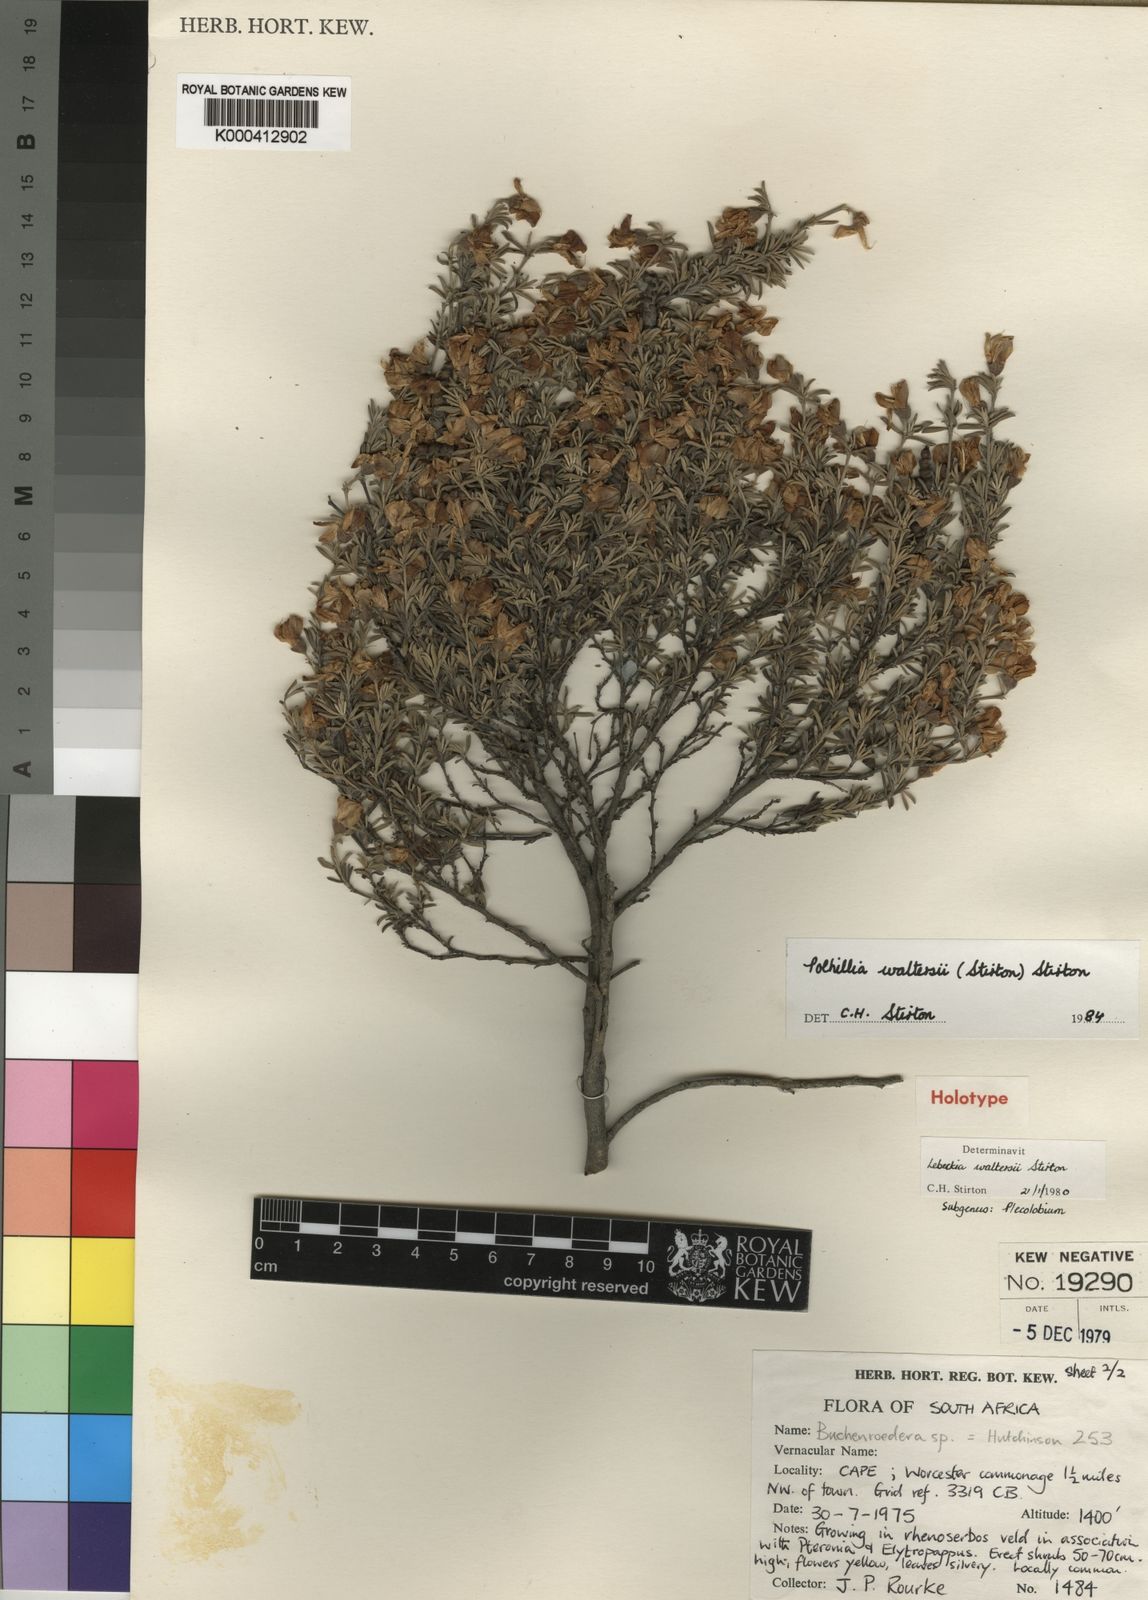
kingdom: Plantae
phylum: Tracheophyta
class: Magnoliopsida
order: Fabales
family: Fabaceae
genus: Polhillia
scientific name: Polhillia obsoleta
